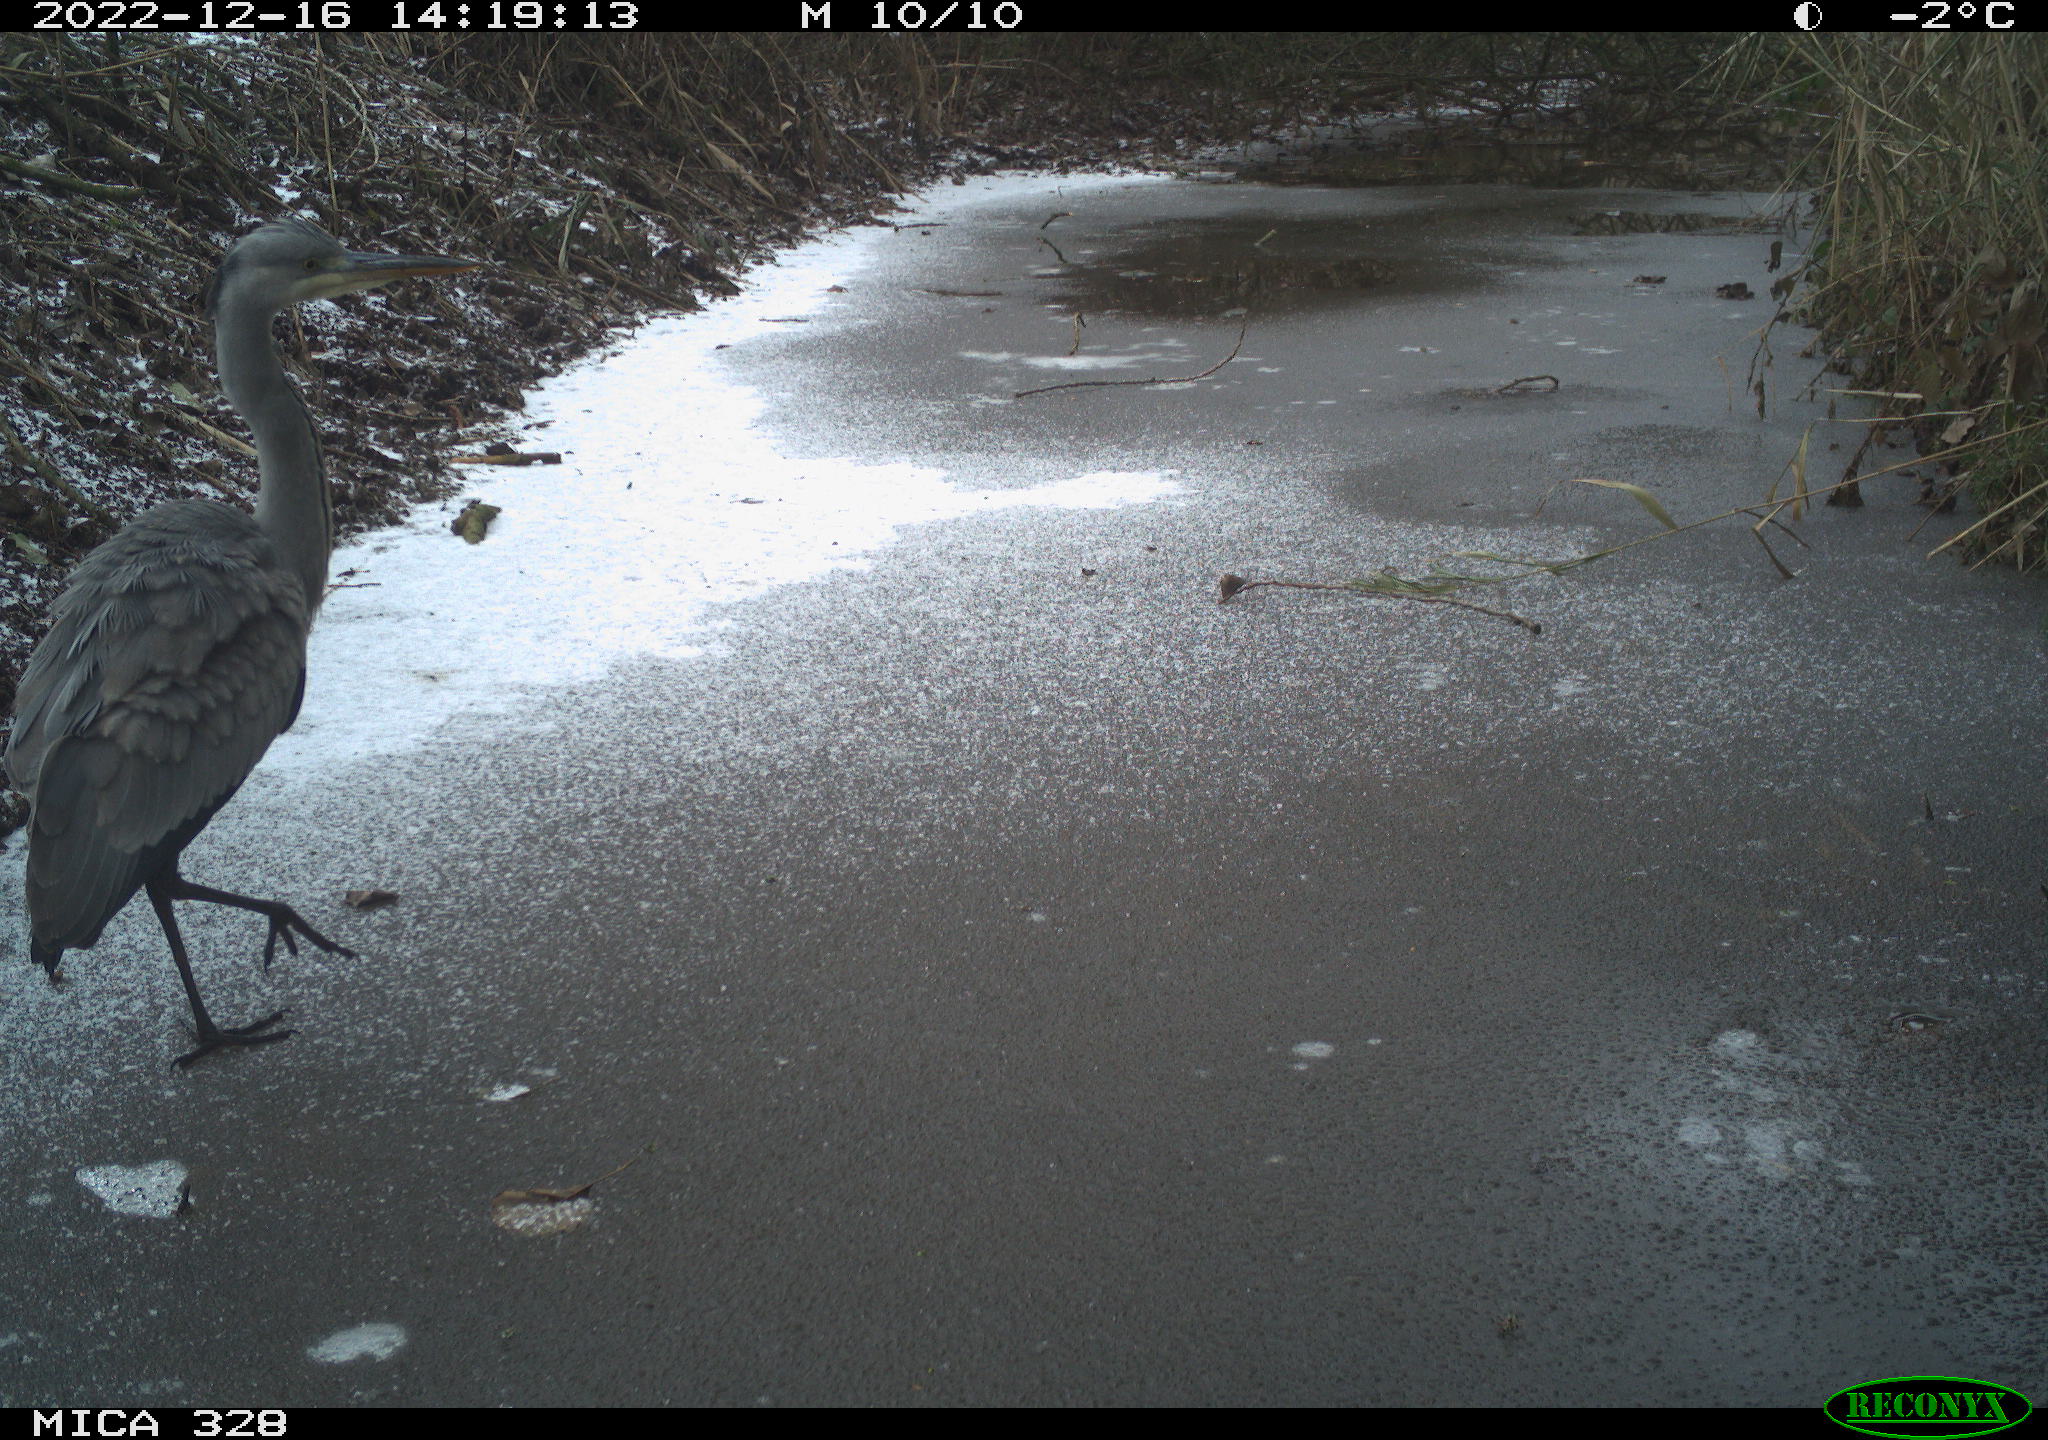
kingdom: Animalia
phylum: Chordata
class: Aves
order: Pelecaniformes
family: Ardeidae
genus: Ardea
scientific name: Ardea cinerea
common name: Grey heron
